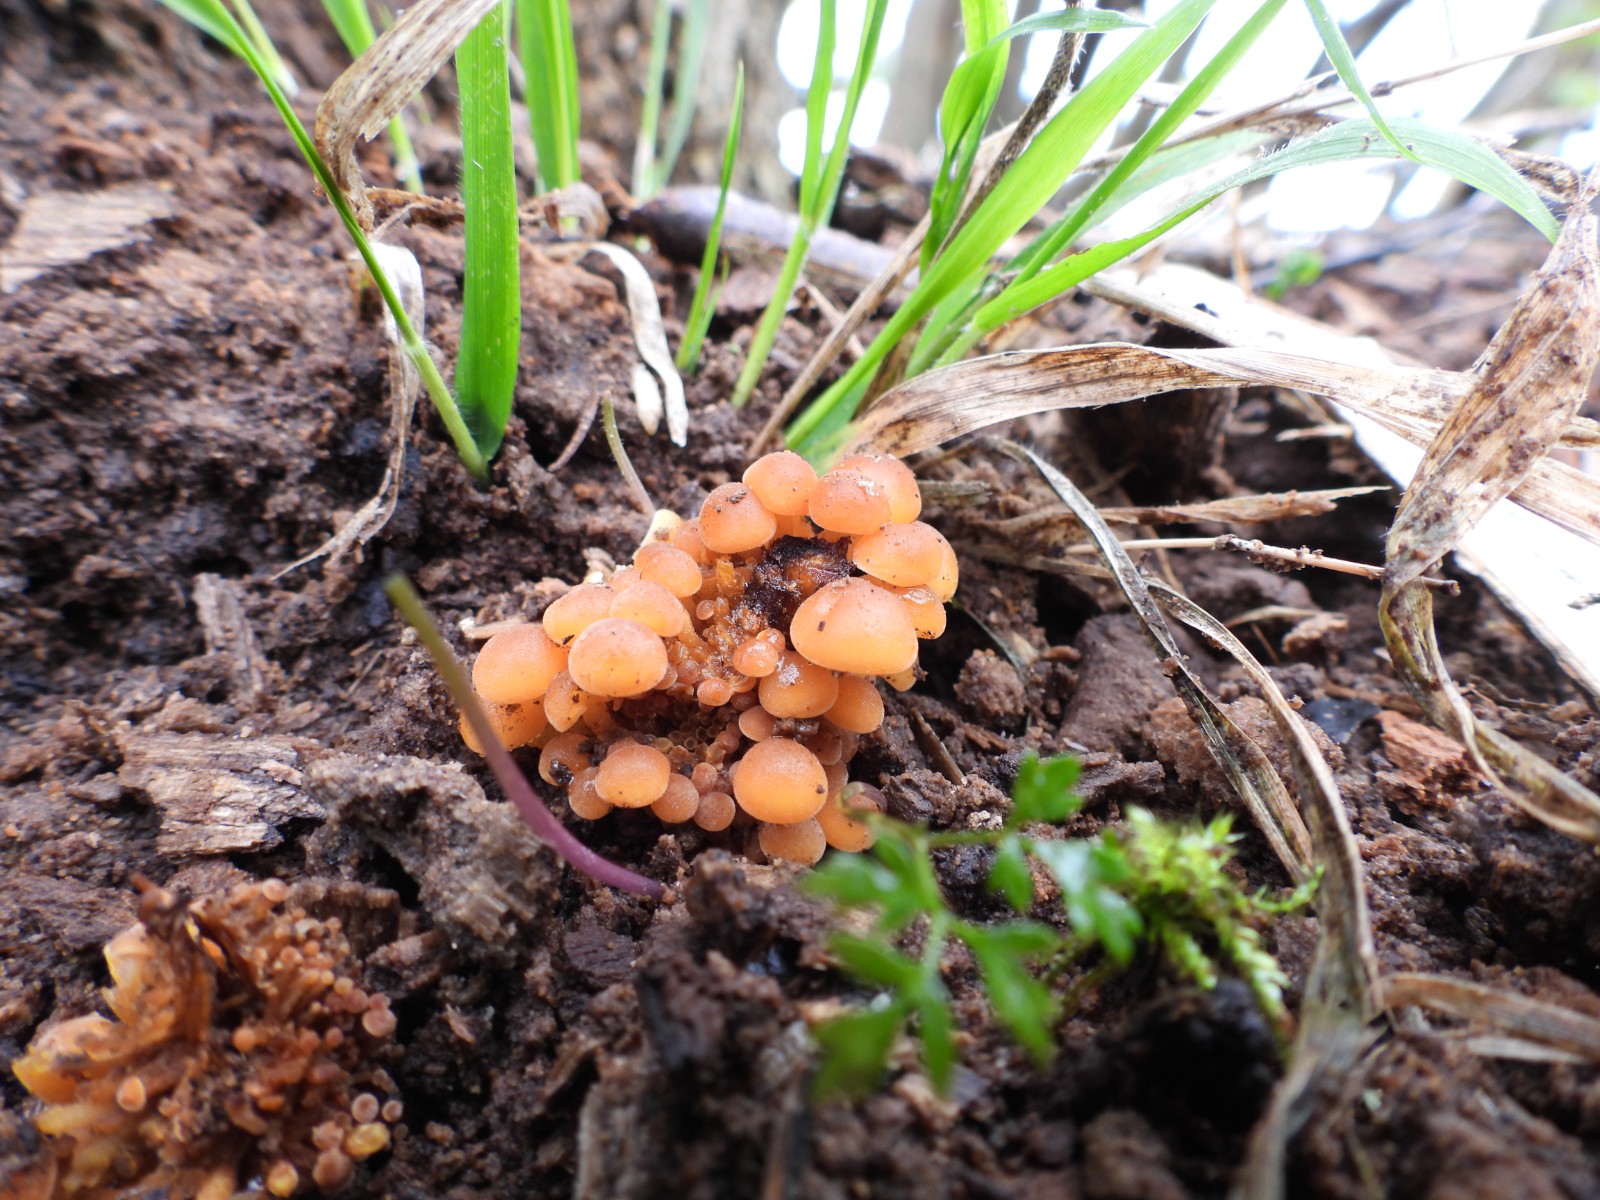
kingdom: Fungi
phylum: Basidiomycota
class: Agaricomycetes
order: Agaricales
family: Physalacriaceae
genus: Flammulina
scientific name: Flammulina velutipes
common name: gul fløjlsfod
